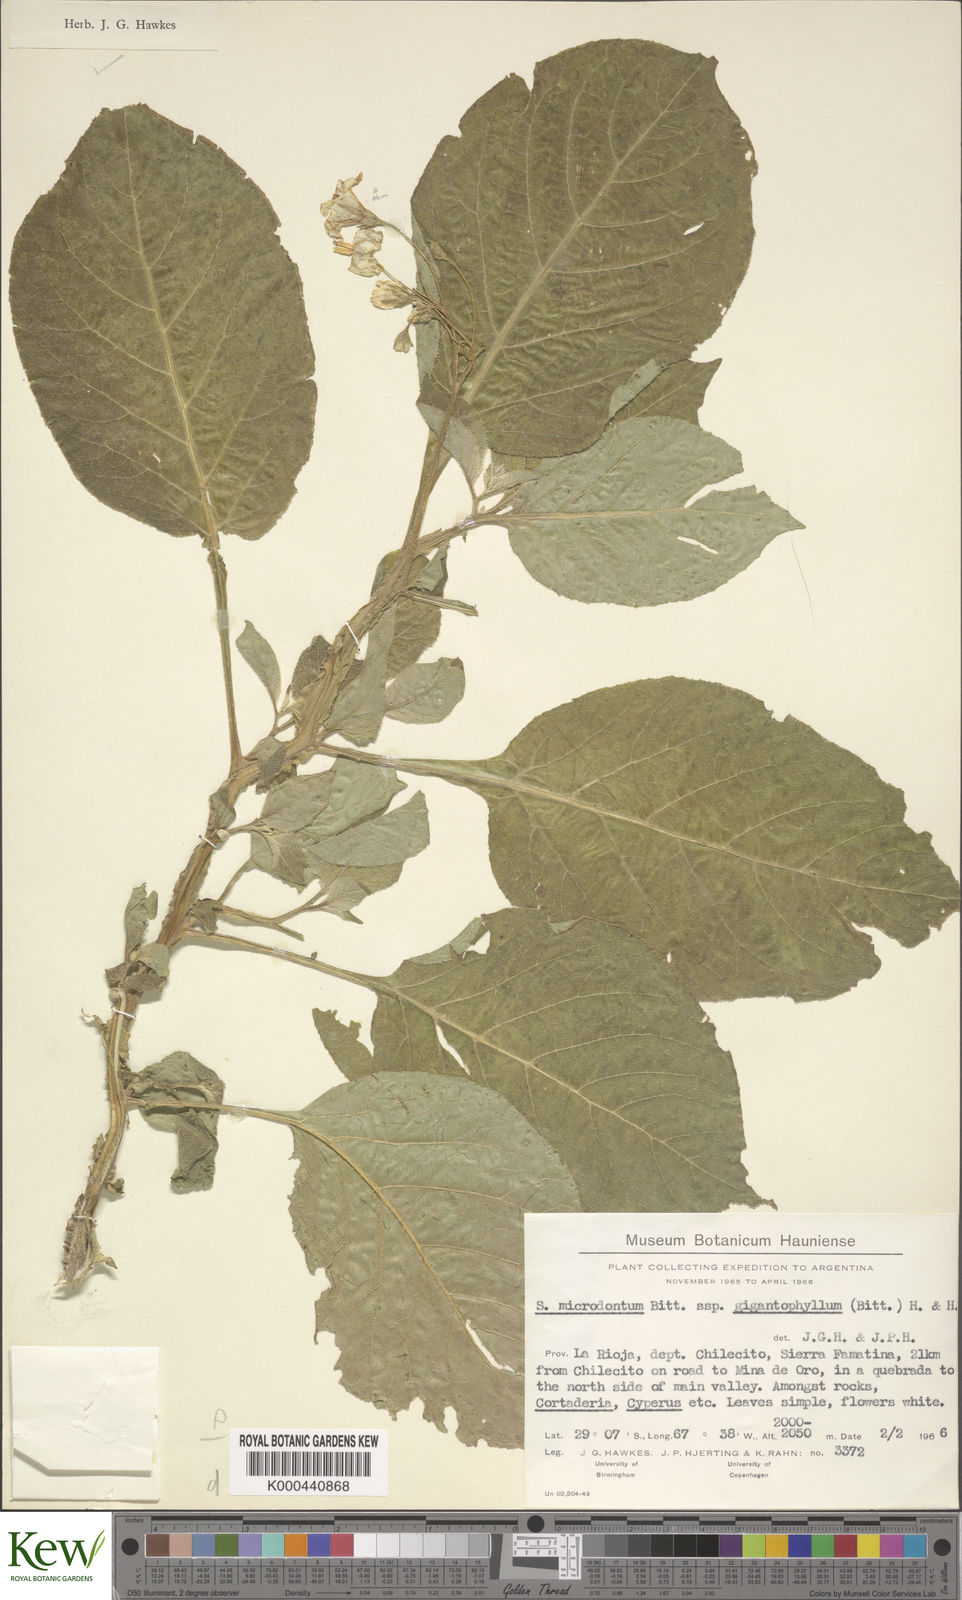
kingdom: Plantae
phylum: Tracheophyta
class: Magnoliopsida
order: Solanales
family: Solanaceae
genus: Solanum
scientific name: Solanum microdontum
